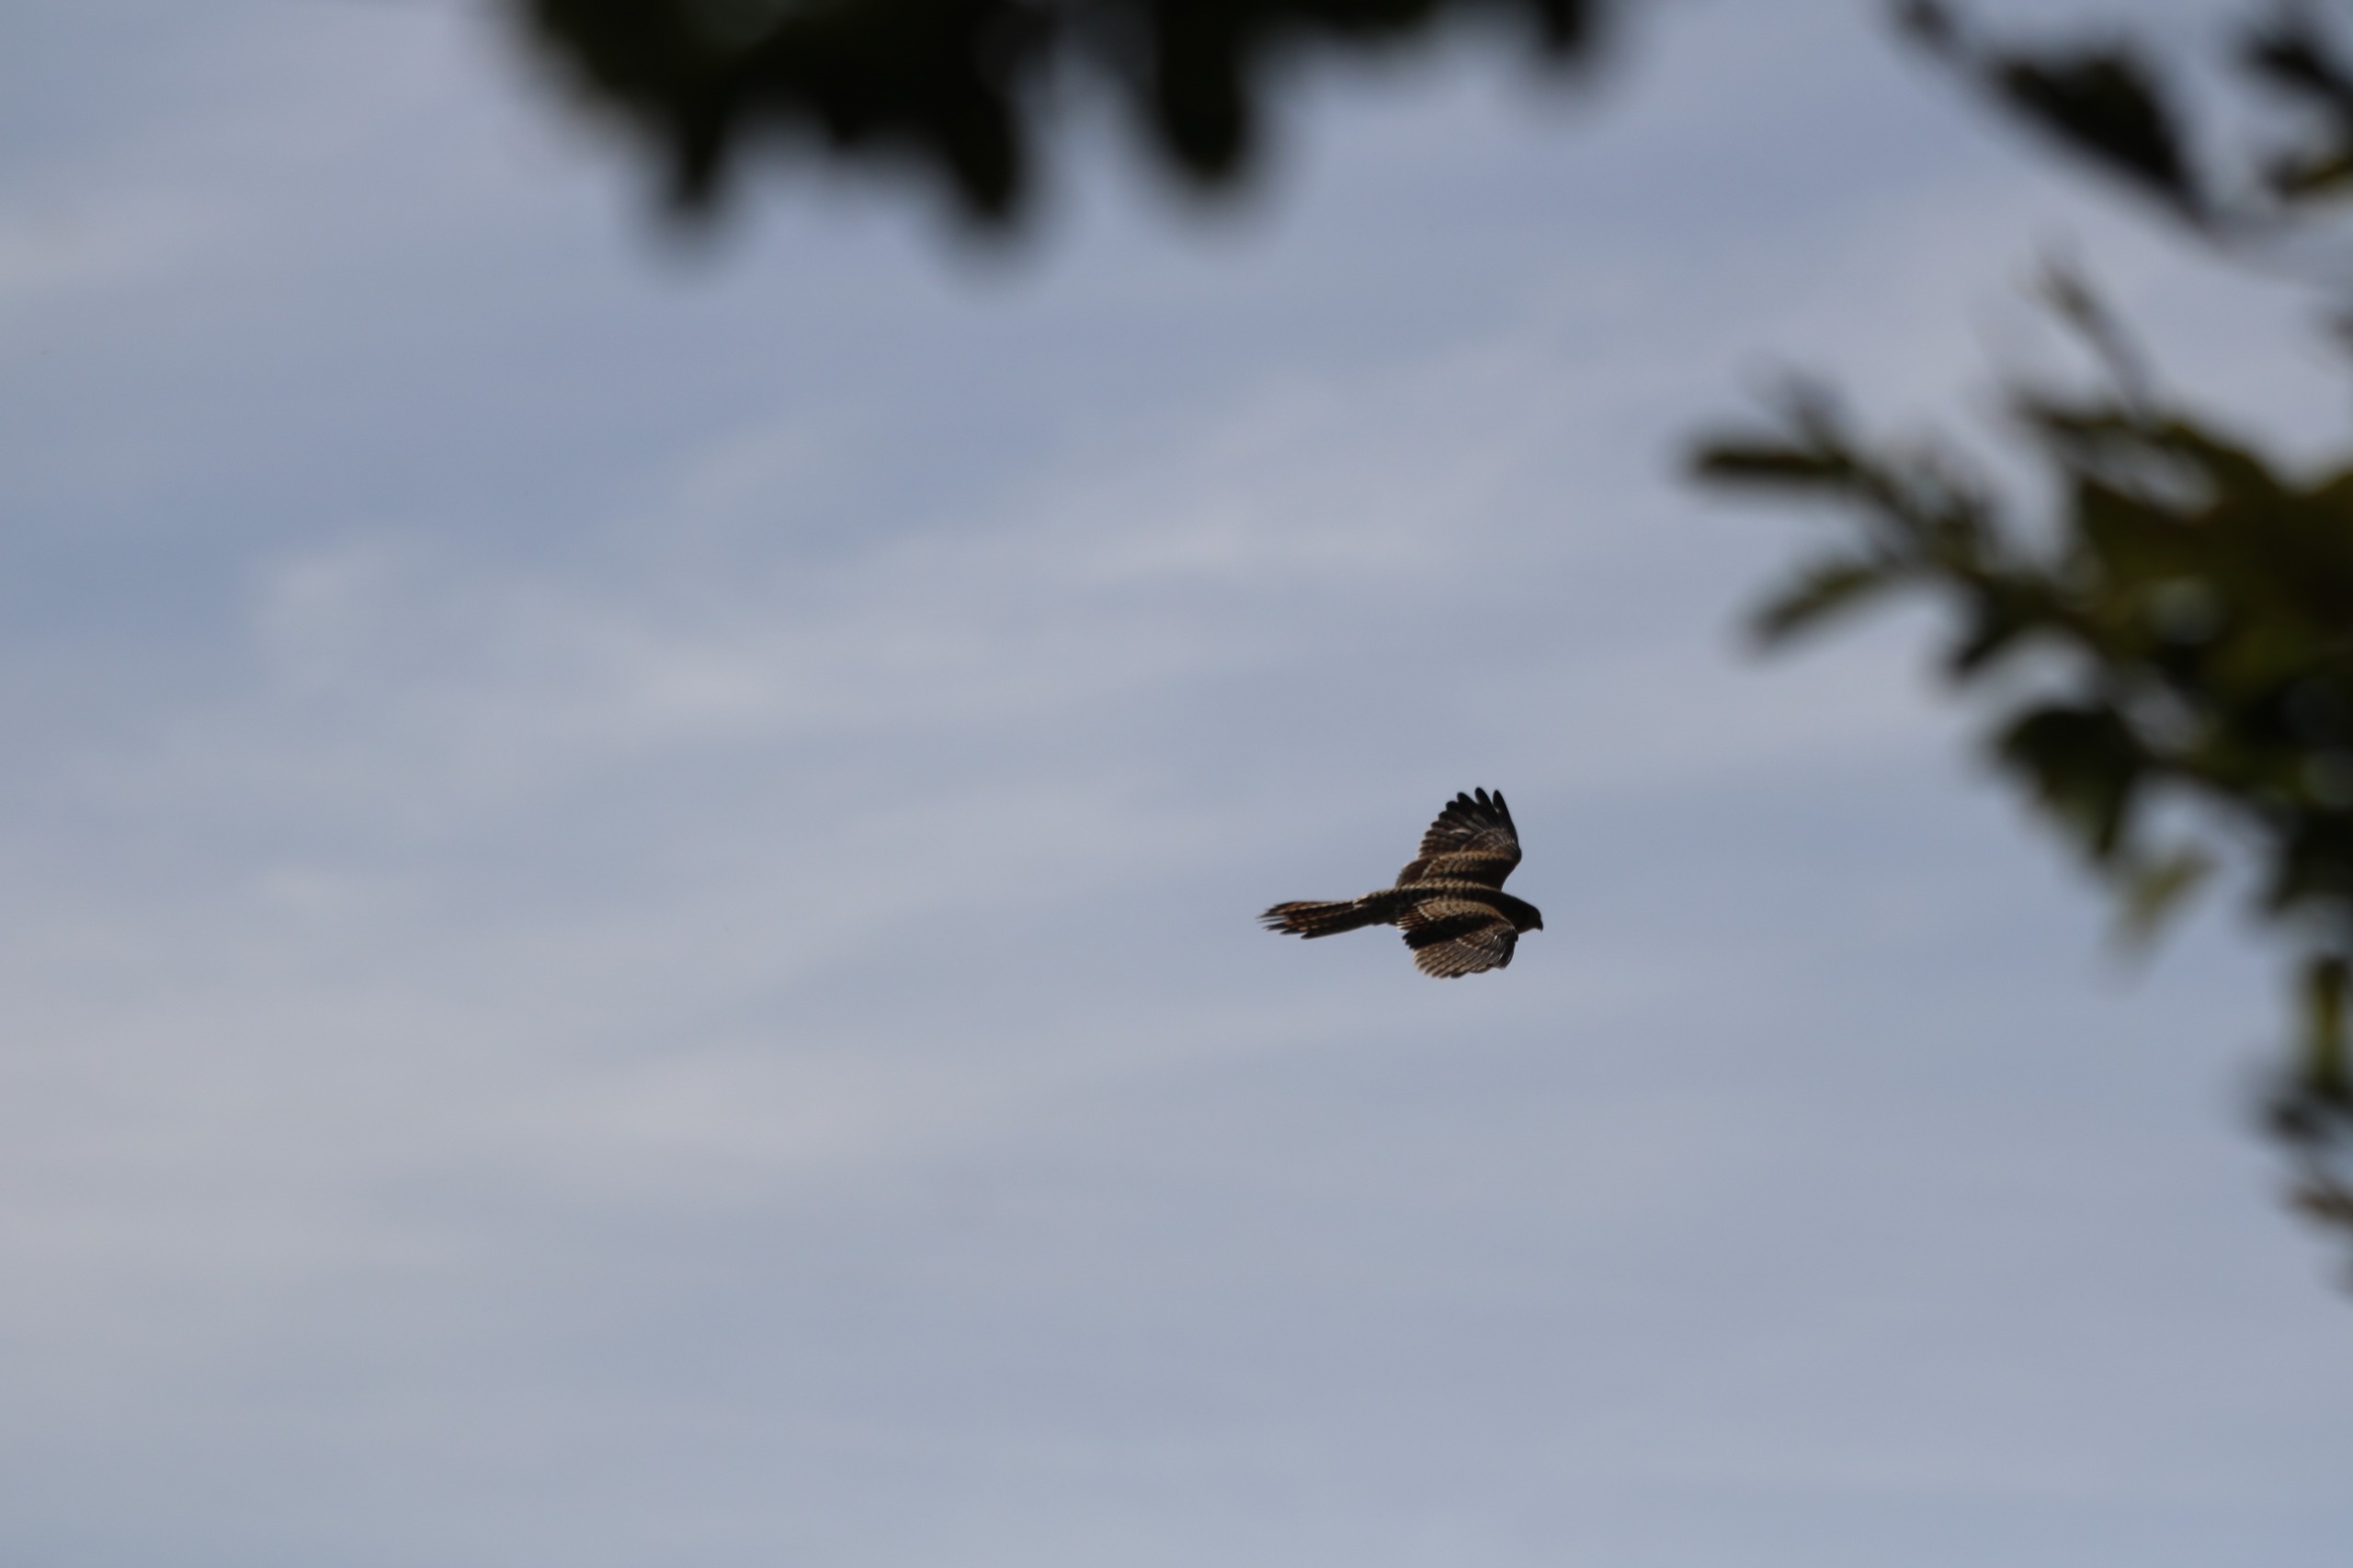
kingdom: Animalia
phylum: Chordata
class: Aves
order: Falconiformes
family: Falconidae
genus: Falco
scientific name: Falco tinnunculus
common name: Tårnfalk
